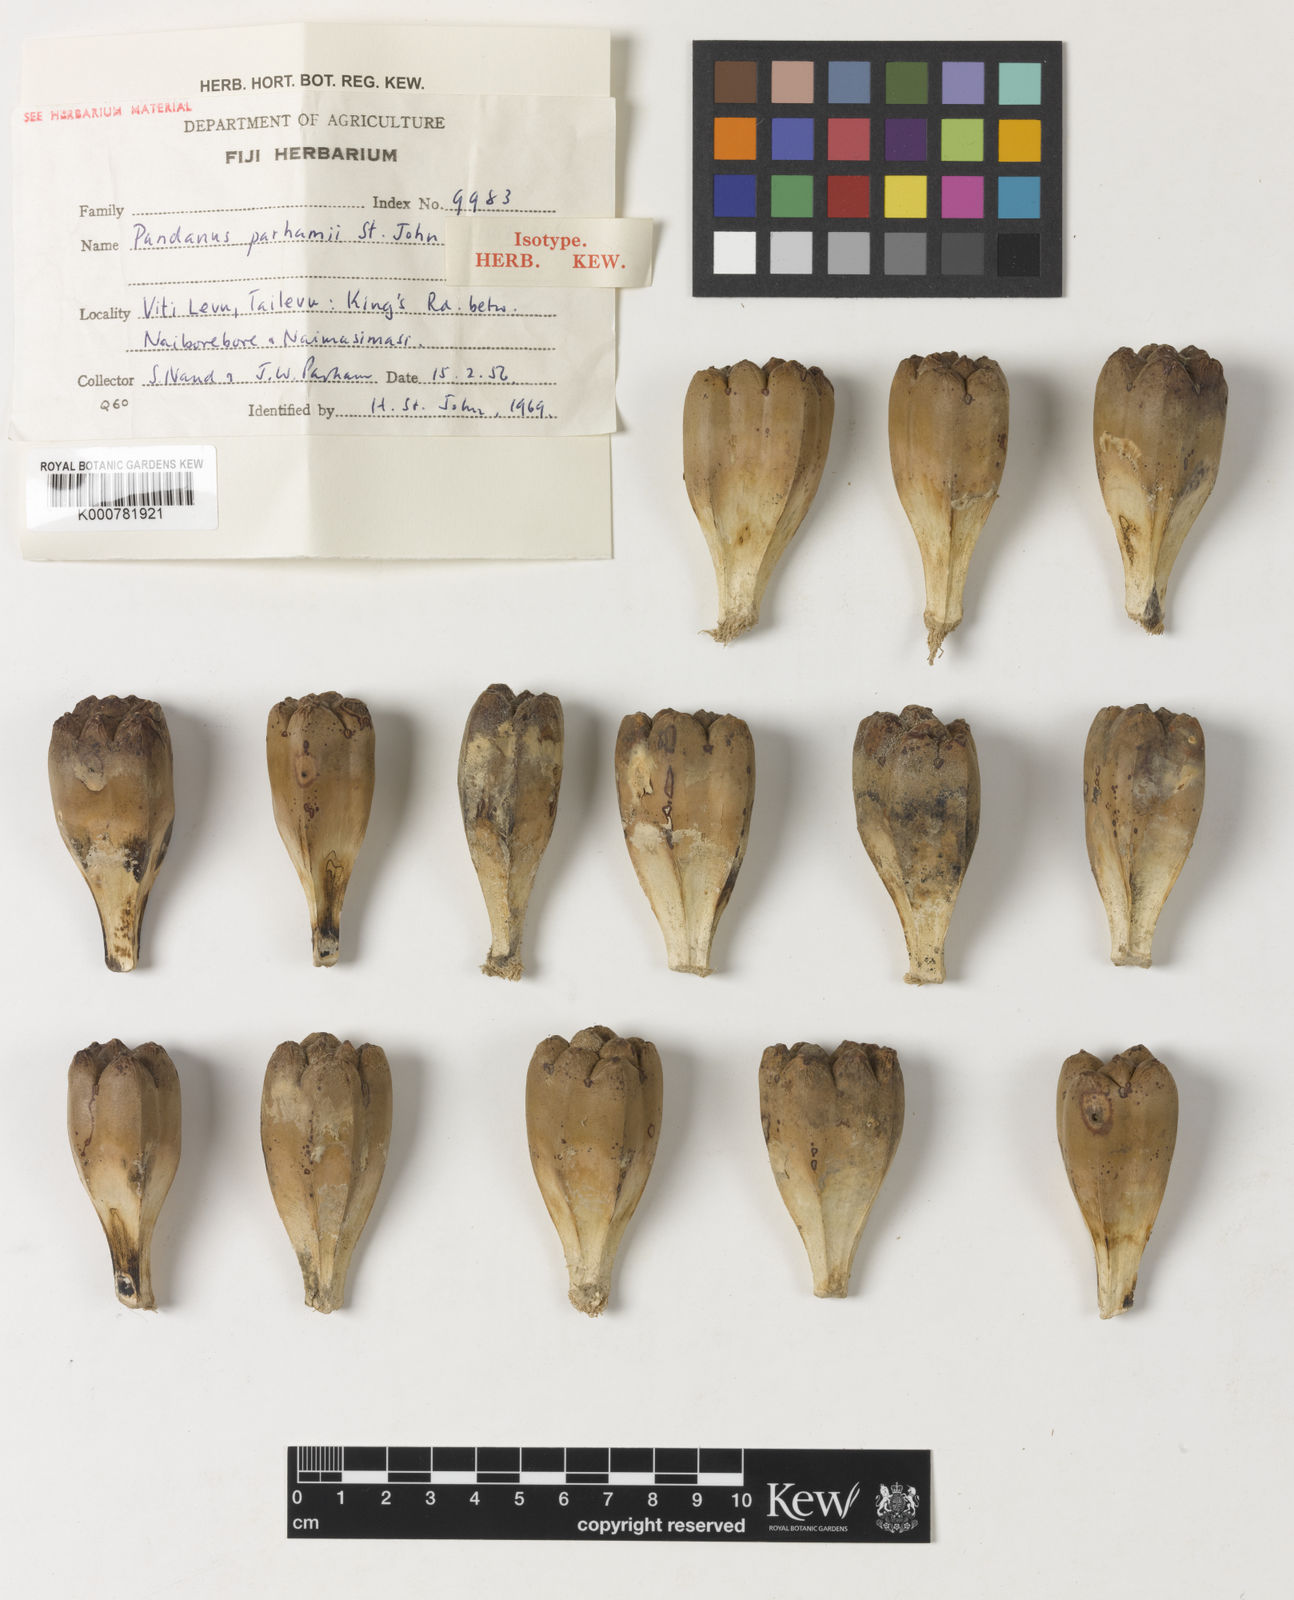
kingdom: Plantae
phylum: Tracheophyta
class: Liliopsida
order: Pandanales
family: Pandanaceae
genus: Pandanus
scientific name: Pandanus tectorius
